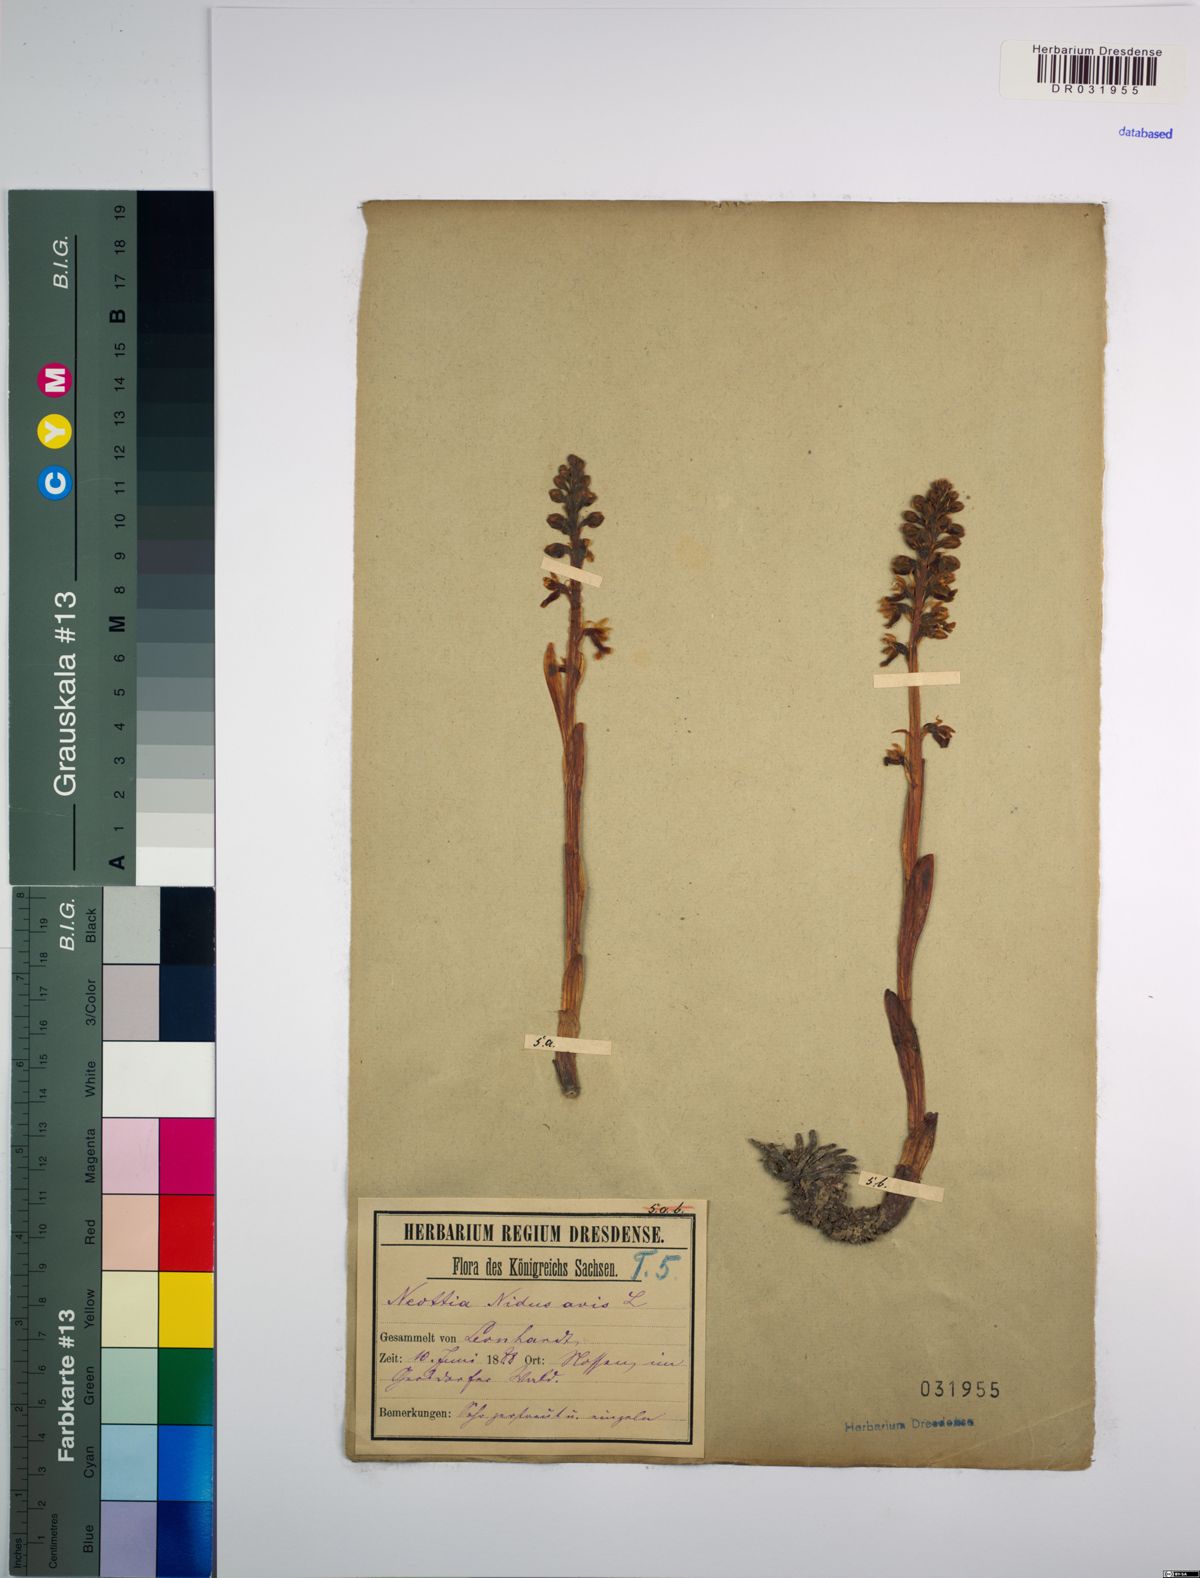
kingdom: Plantae
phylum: Tracheophyta
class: Liliopsida
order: Asparagales
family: Orchidaceae
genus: Neottia
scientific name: Neottia nidus-avis
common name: Bird's-nest orchid
